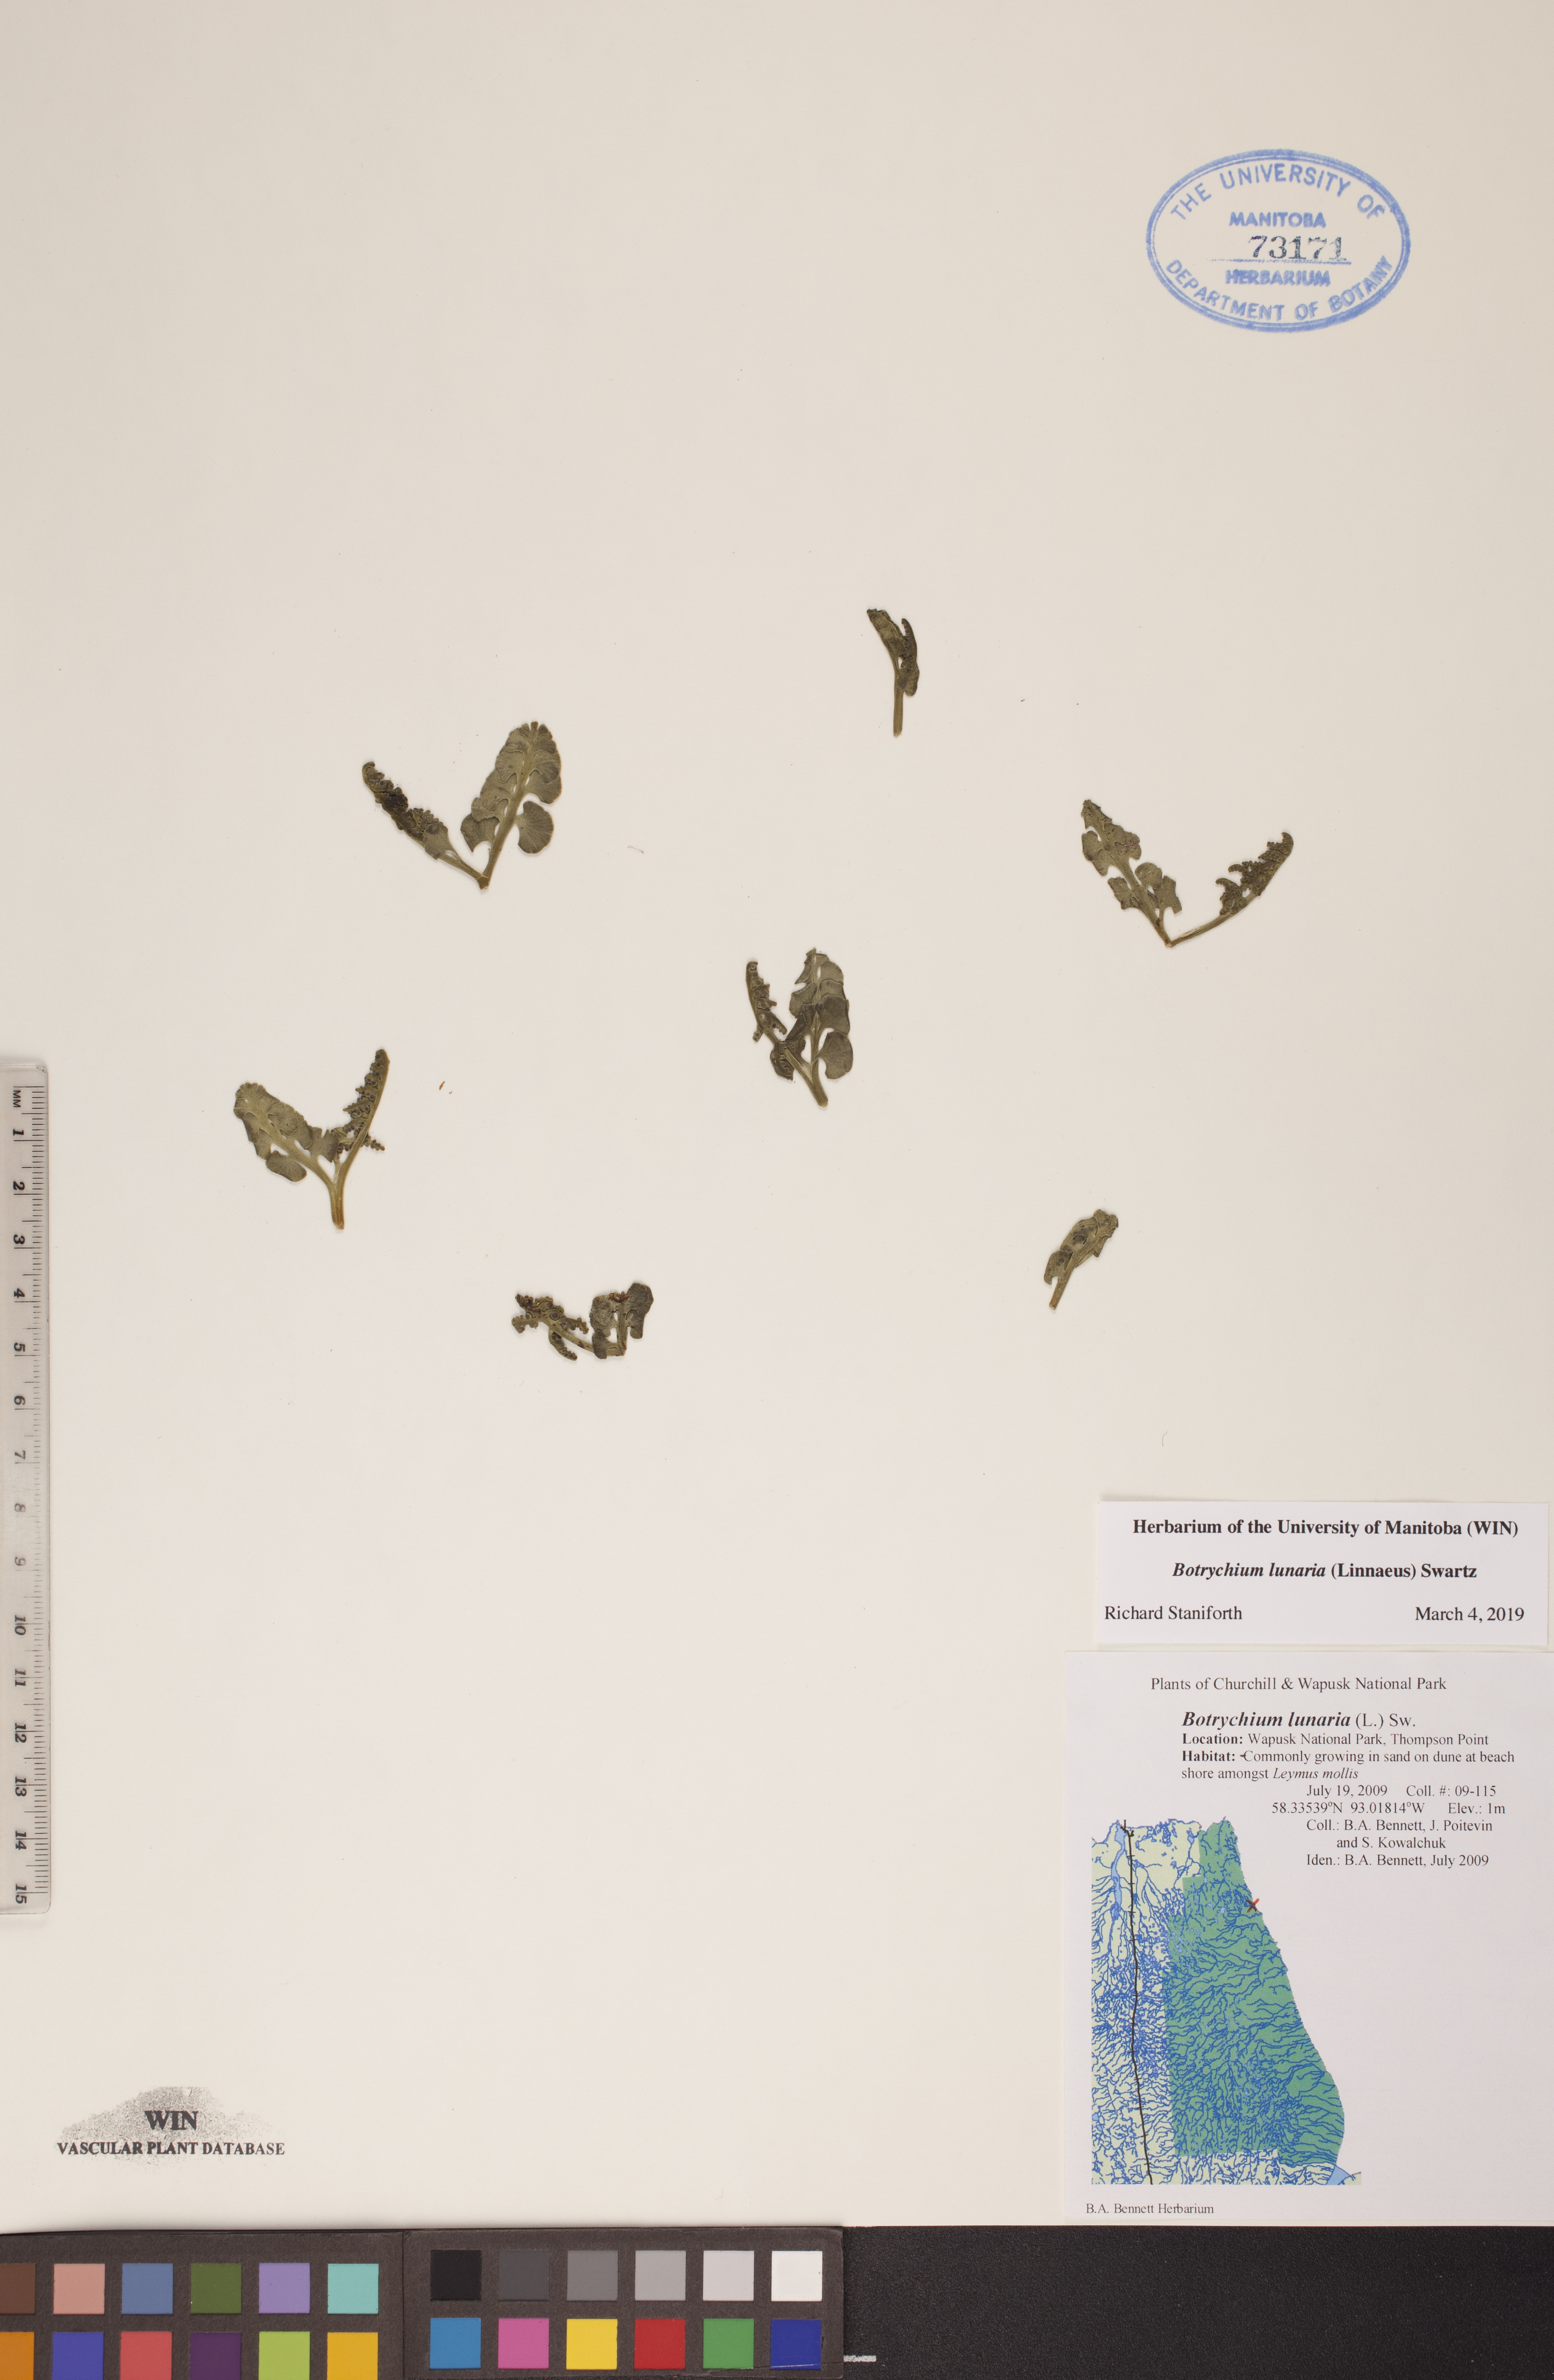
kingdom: Plantae
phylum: Tracheophyta
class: Polypodiopsida
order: Ophioglossales
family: Ophioglossaceae
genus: Botrychium
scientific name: Botrychium lunaria
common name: Moonwort
